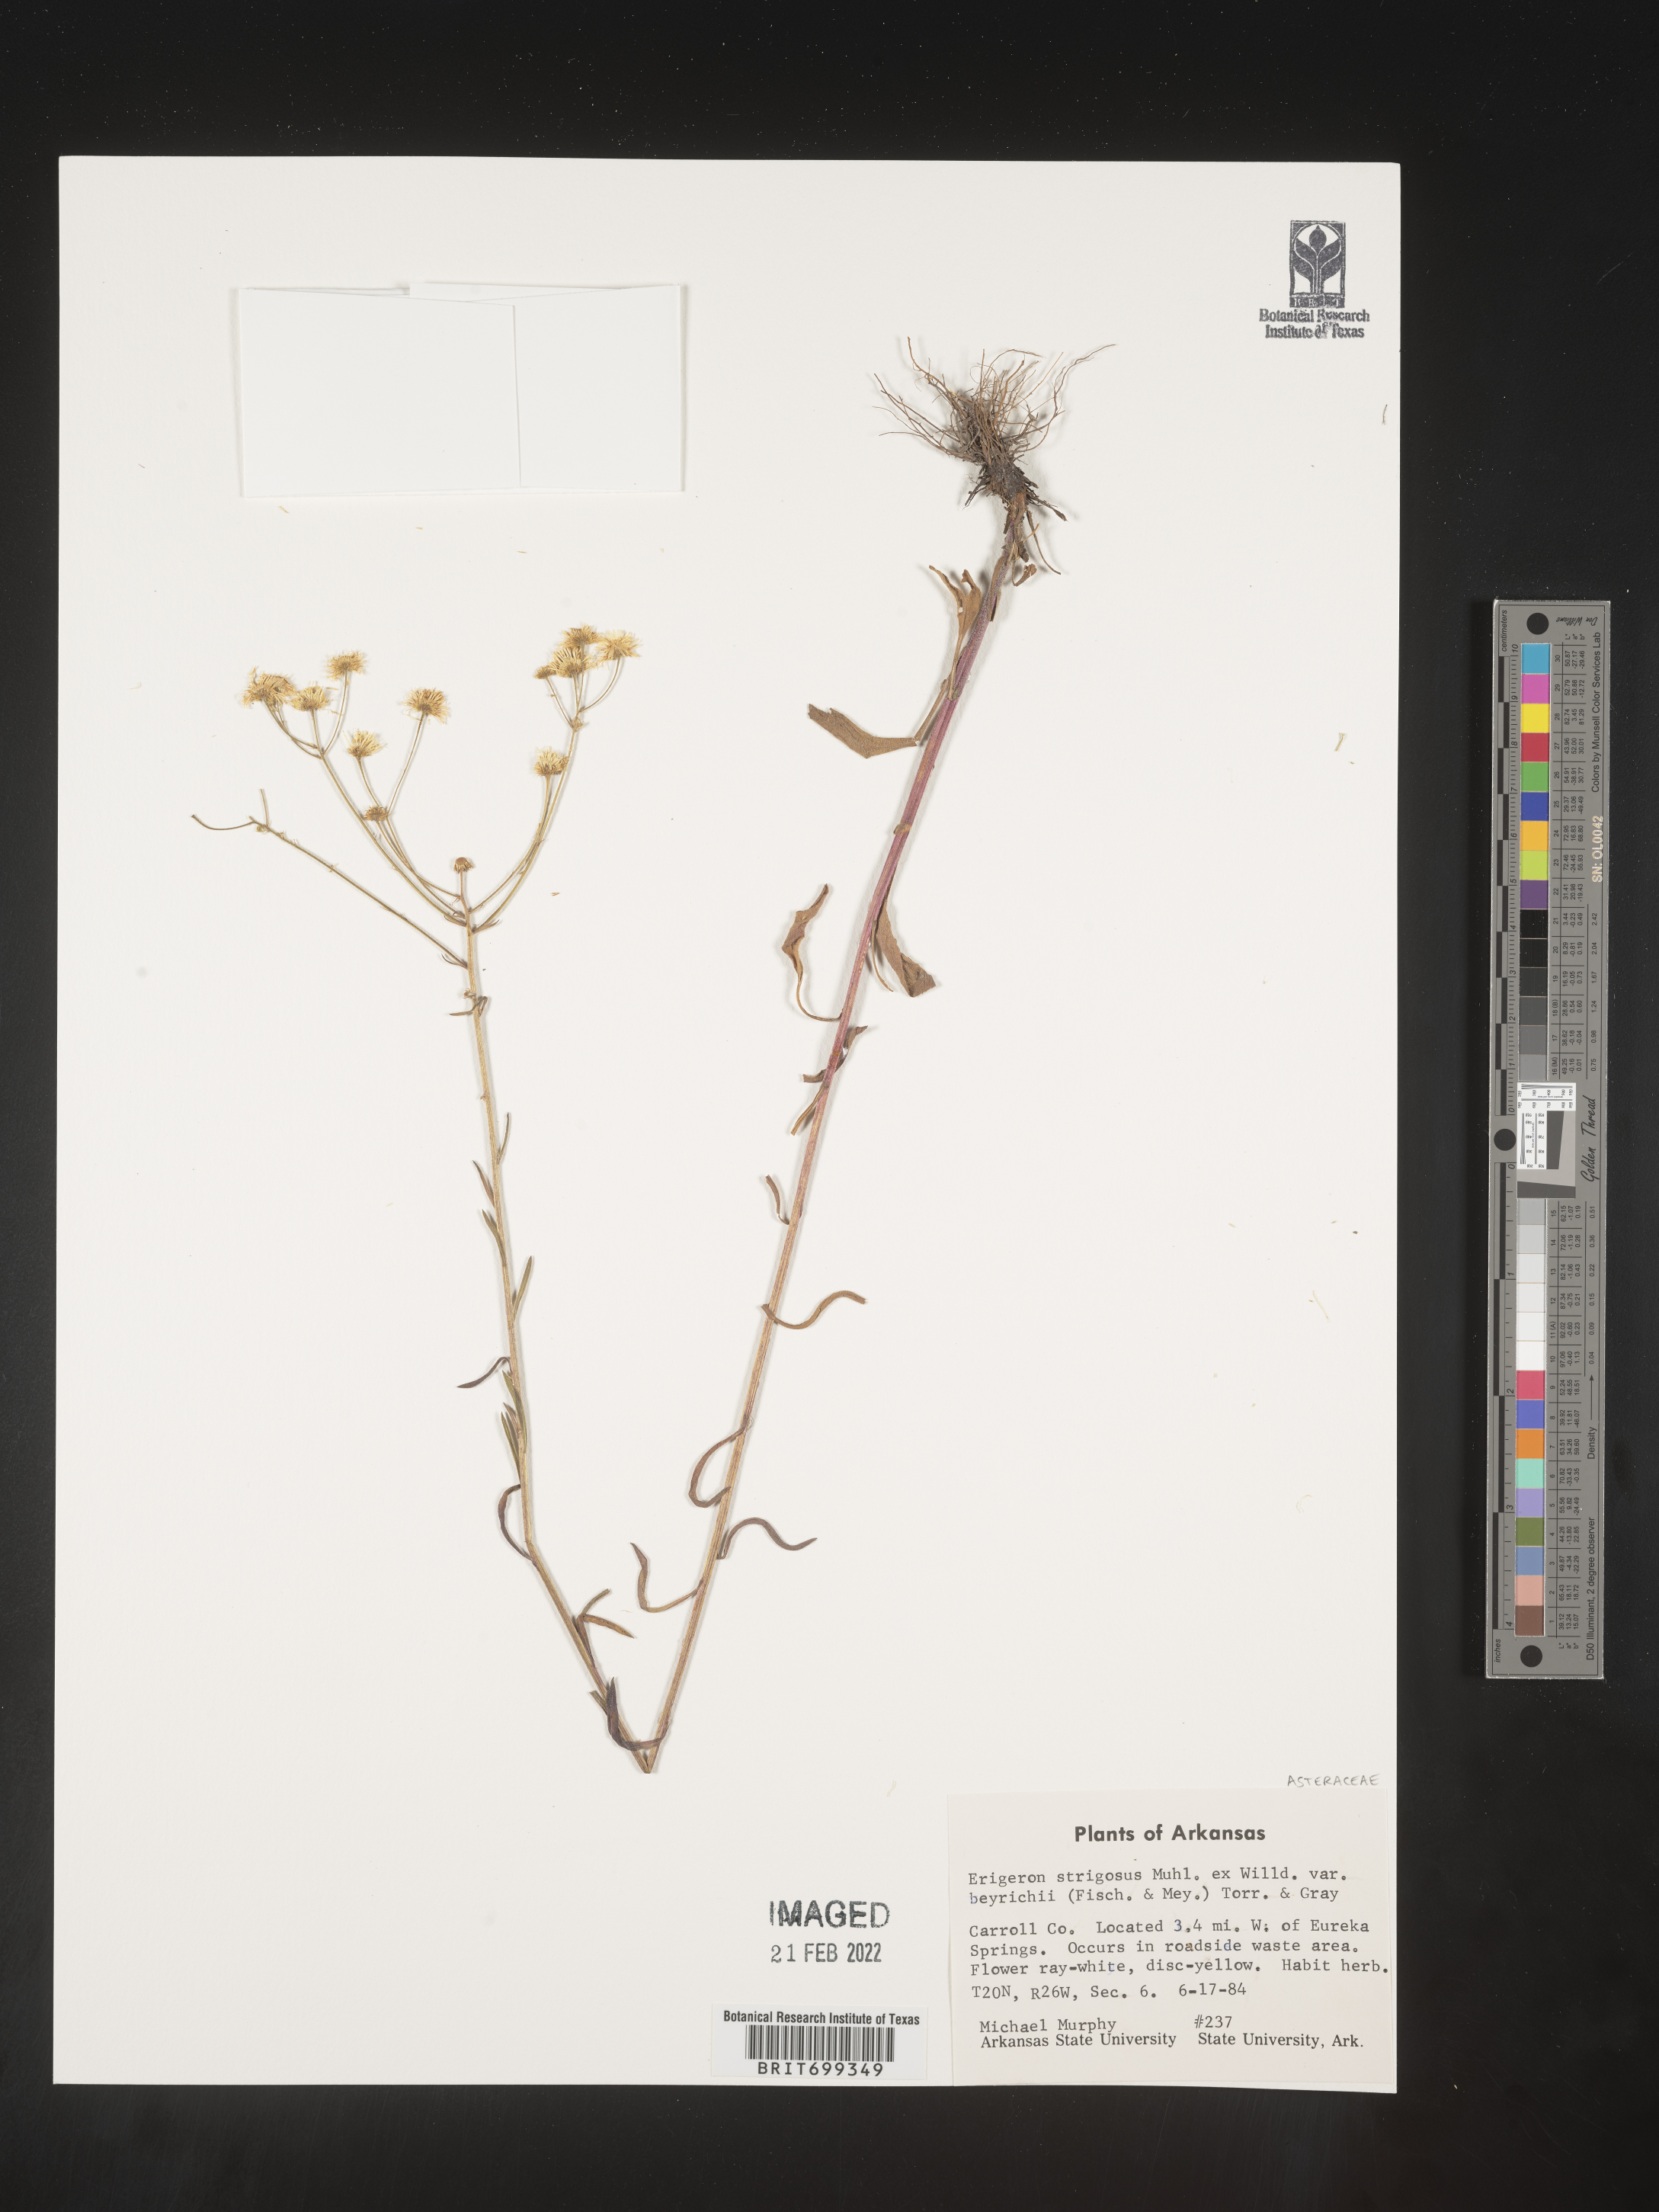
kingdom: Plantae
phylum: Tracheophyta
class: Magnoliopsida
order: Asterales
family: Asteraceae
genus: Erigeron
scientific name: Erigeron strigosus
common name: Common eastern fleabane
